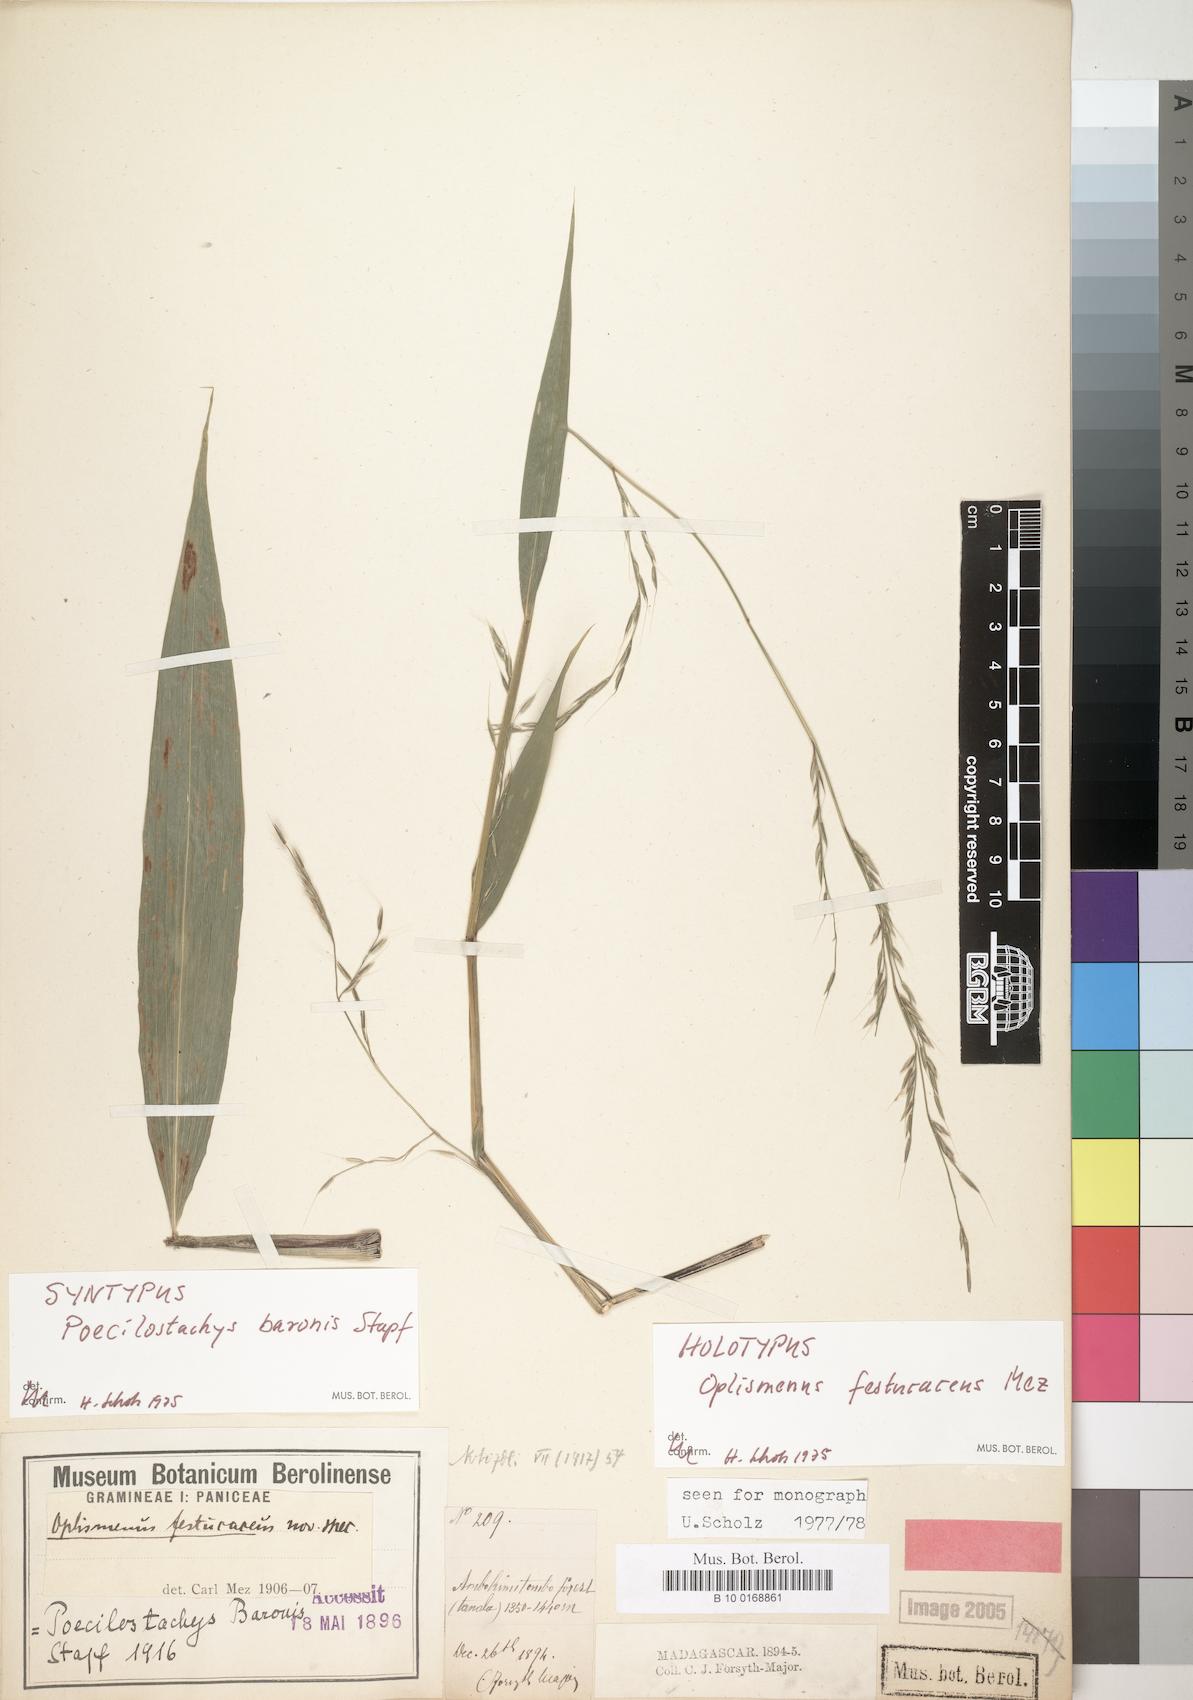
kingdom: Plantae
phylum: Tracheophyta
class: Liliopsida
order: Poales
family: Poaceae
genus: Poecilostachys
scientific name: Poecilostachys baronis
